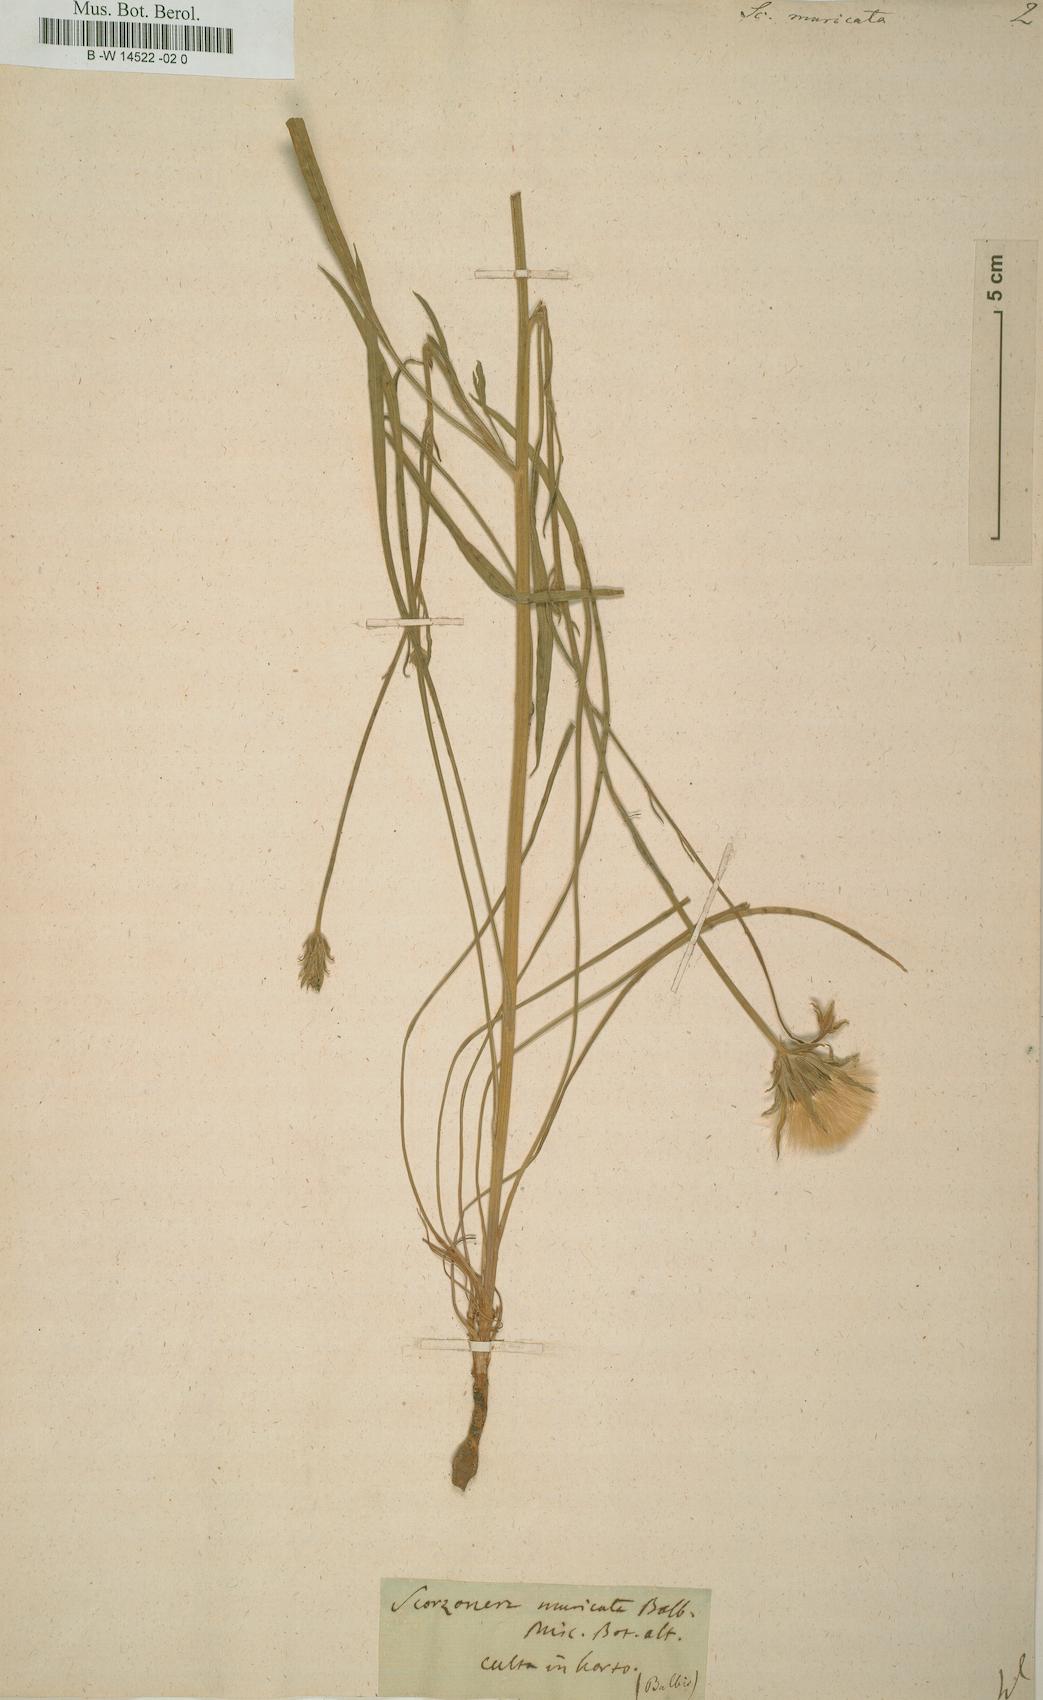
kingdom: Plantae
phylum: Tracheophyta
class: Magnoliopsida
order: Asterales
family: Asteraceae
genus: Scorzonera
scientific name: Scorzonera laciniata
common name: Cutleaf vipergrass
